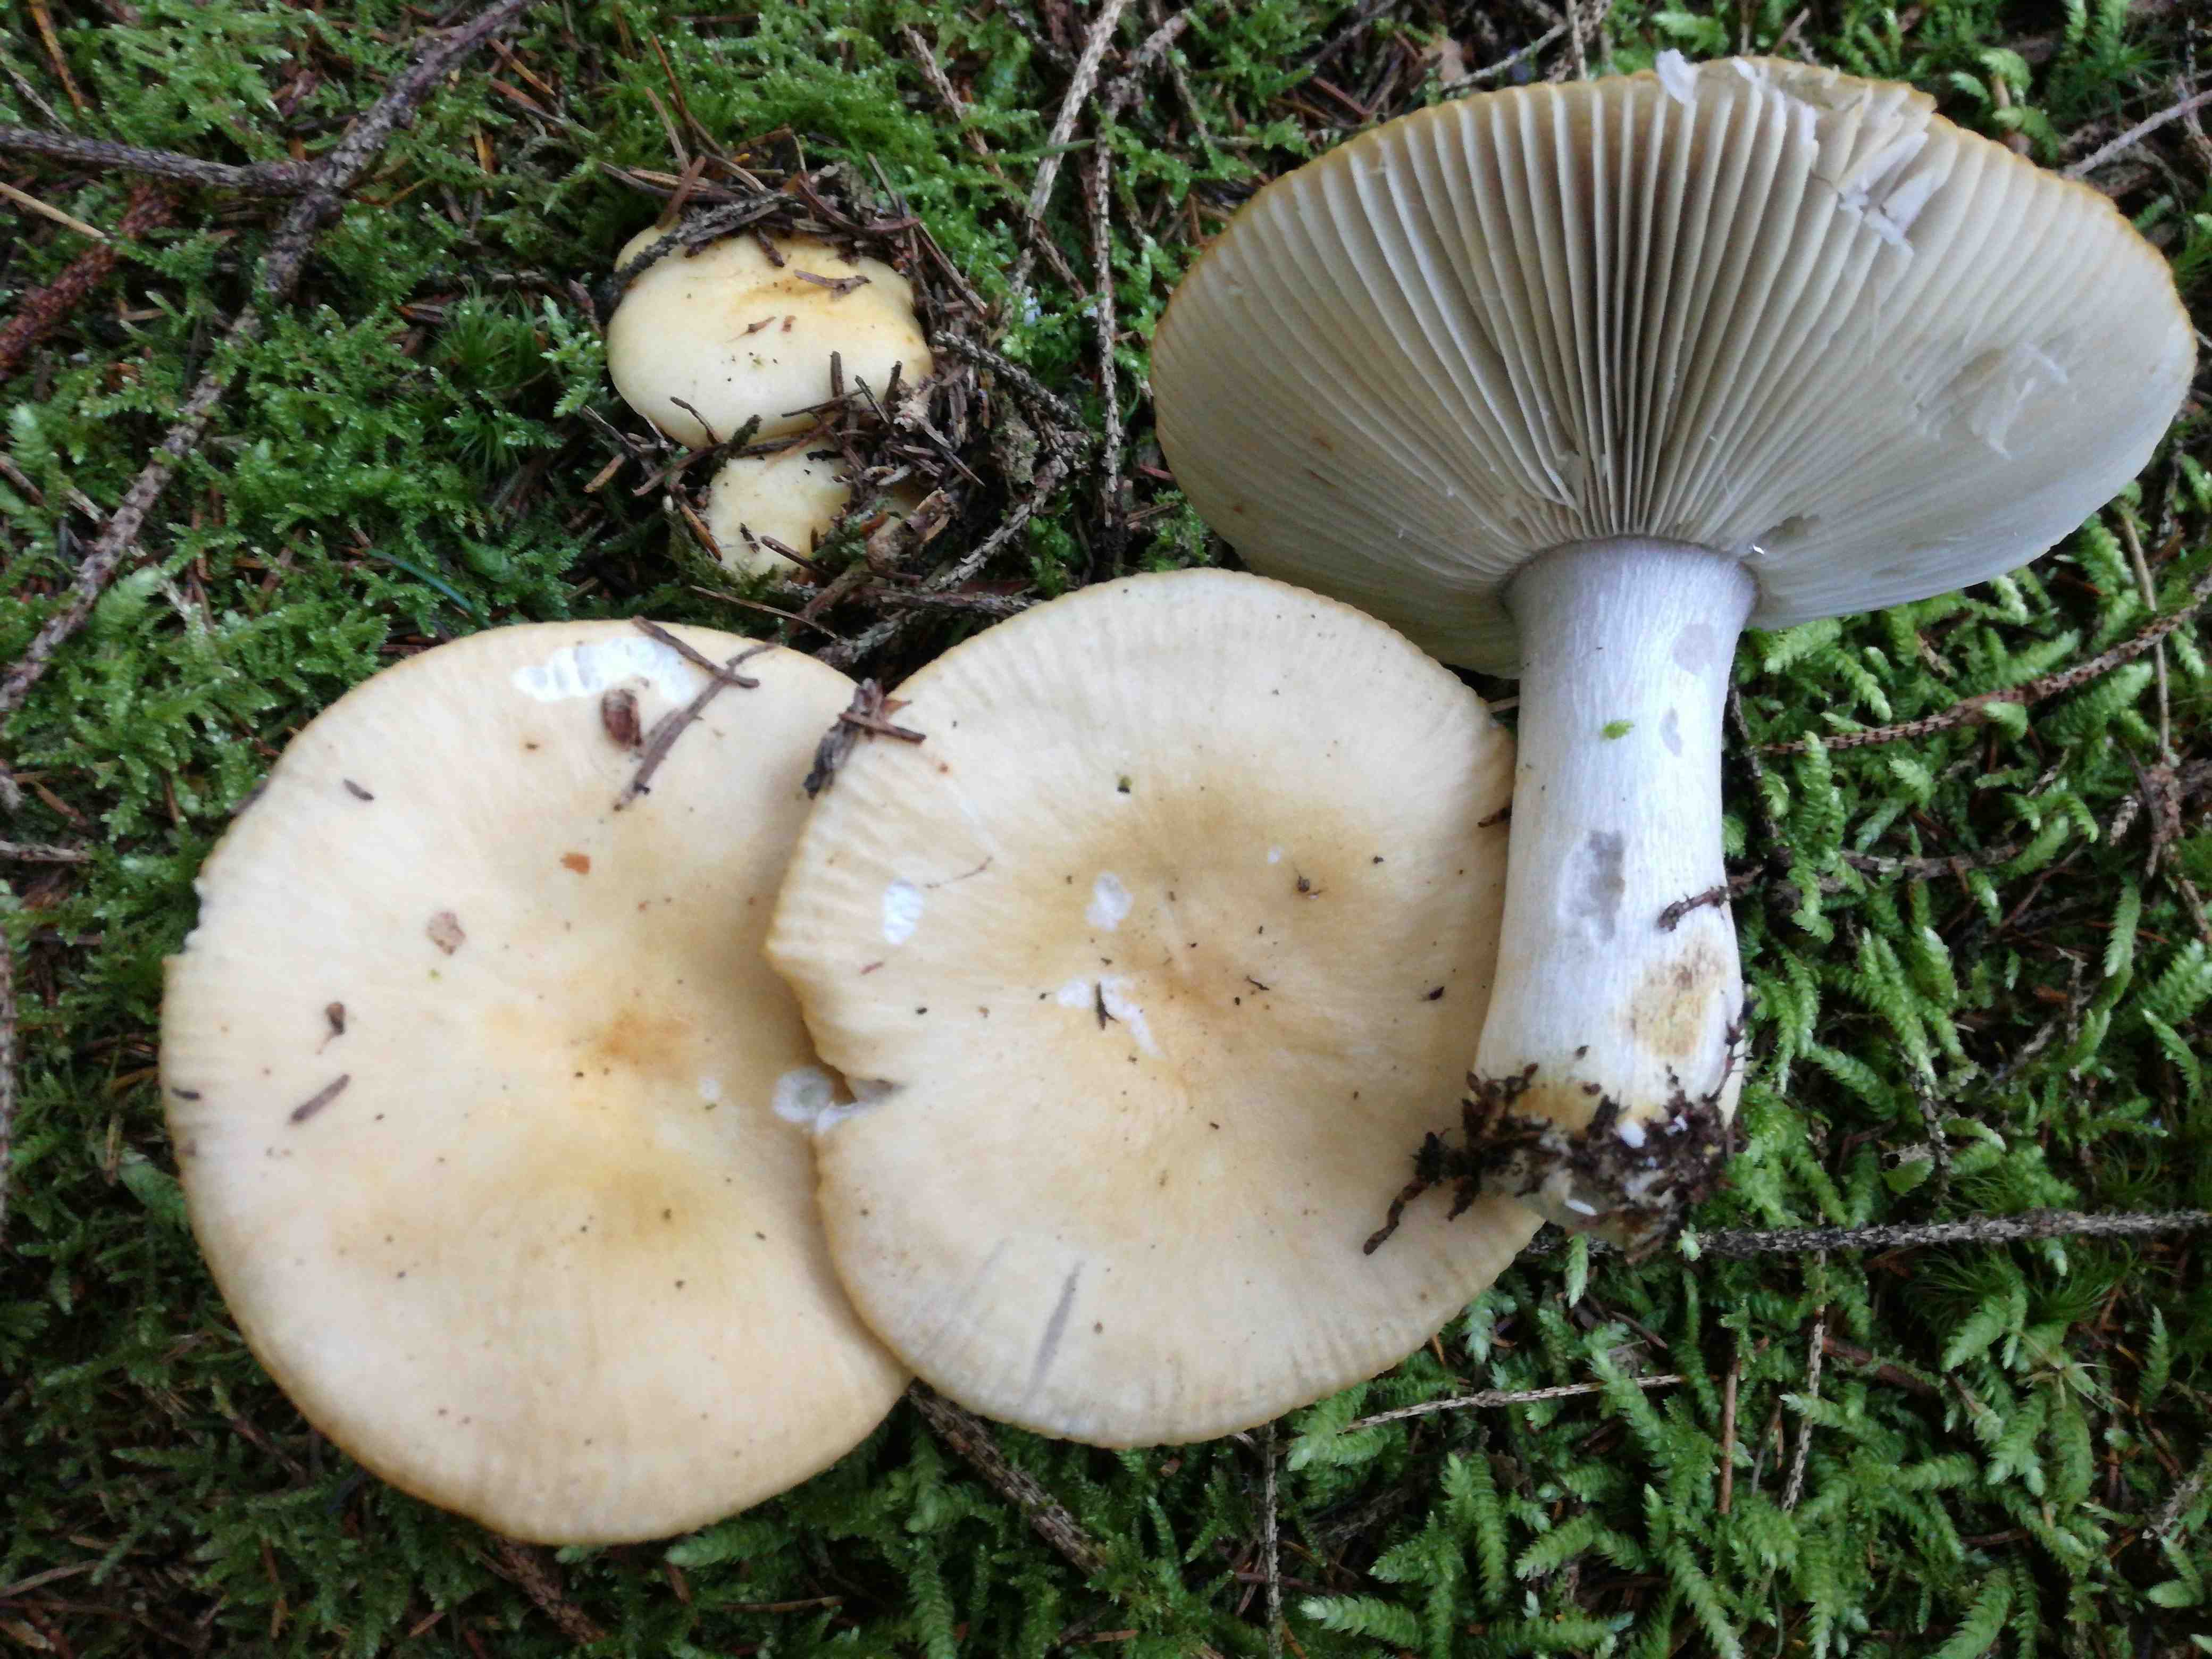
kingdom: Fungi
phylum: Basidiomycota
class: Agaricomycetes
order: Russulales
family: Russulaceae
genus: Russula
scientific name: Russula ochroleuca
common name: okkergul skørhat
